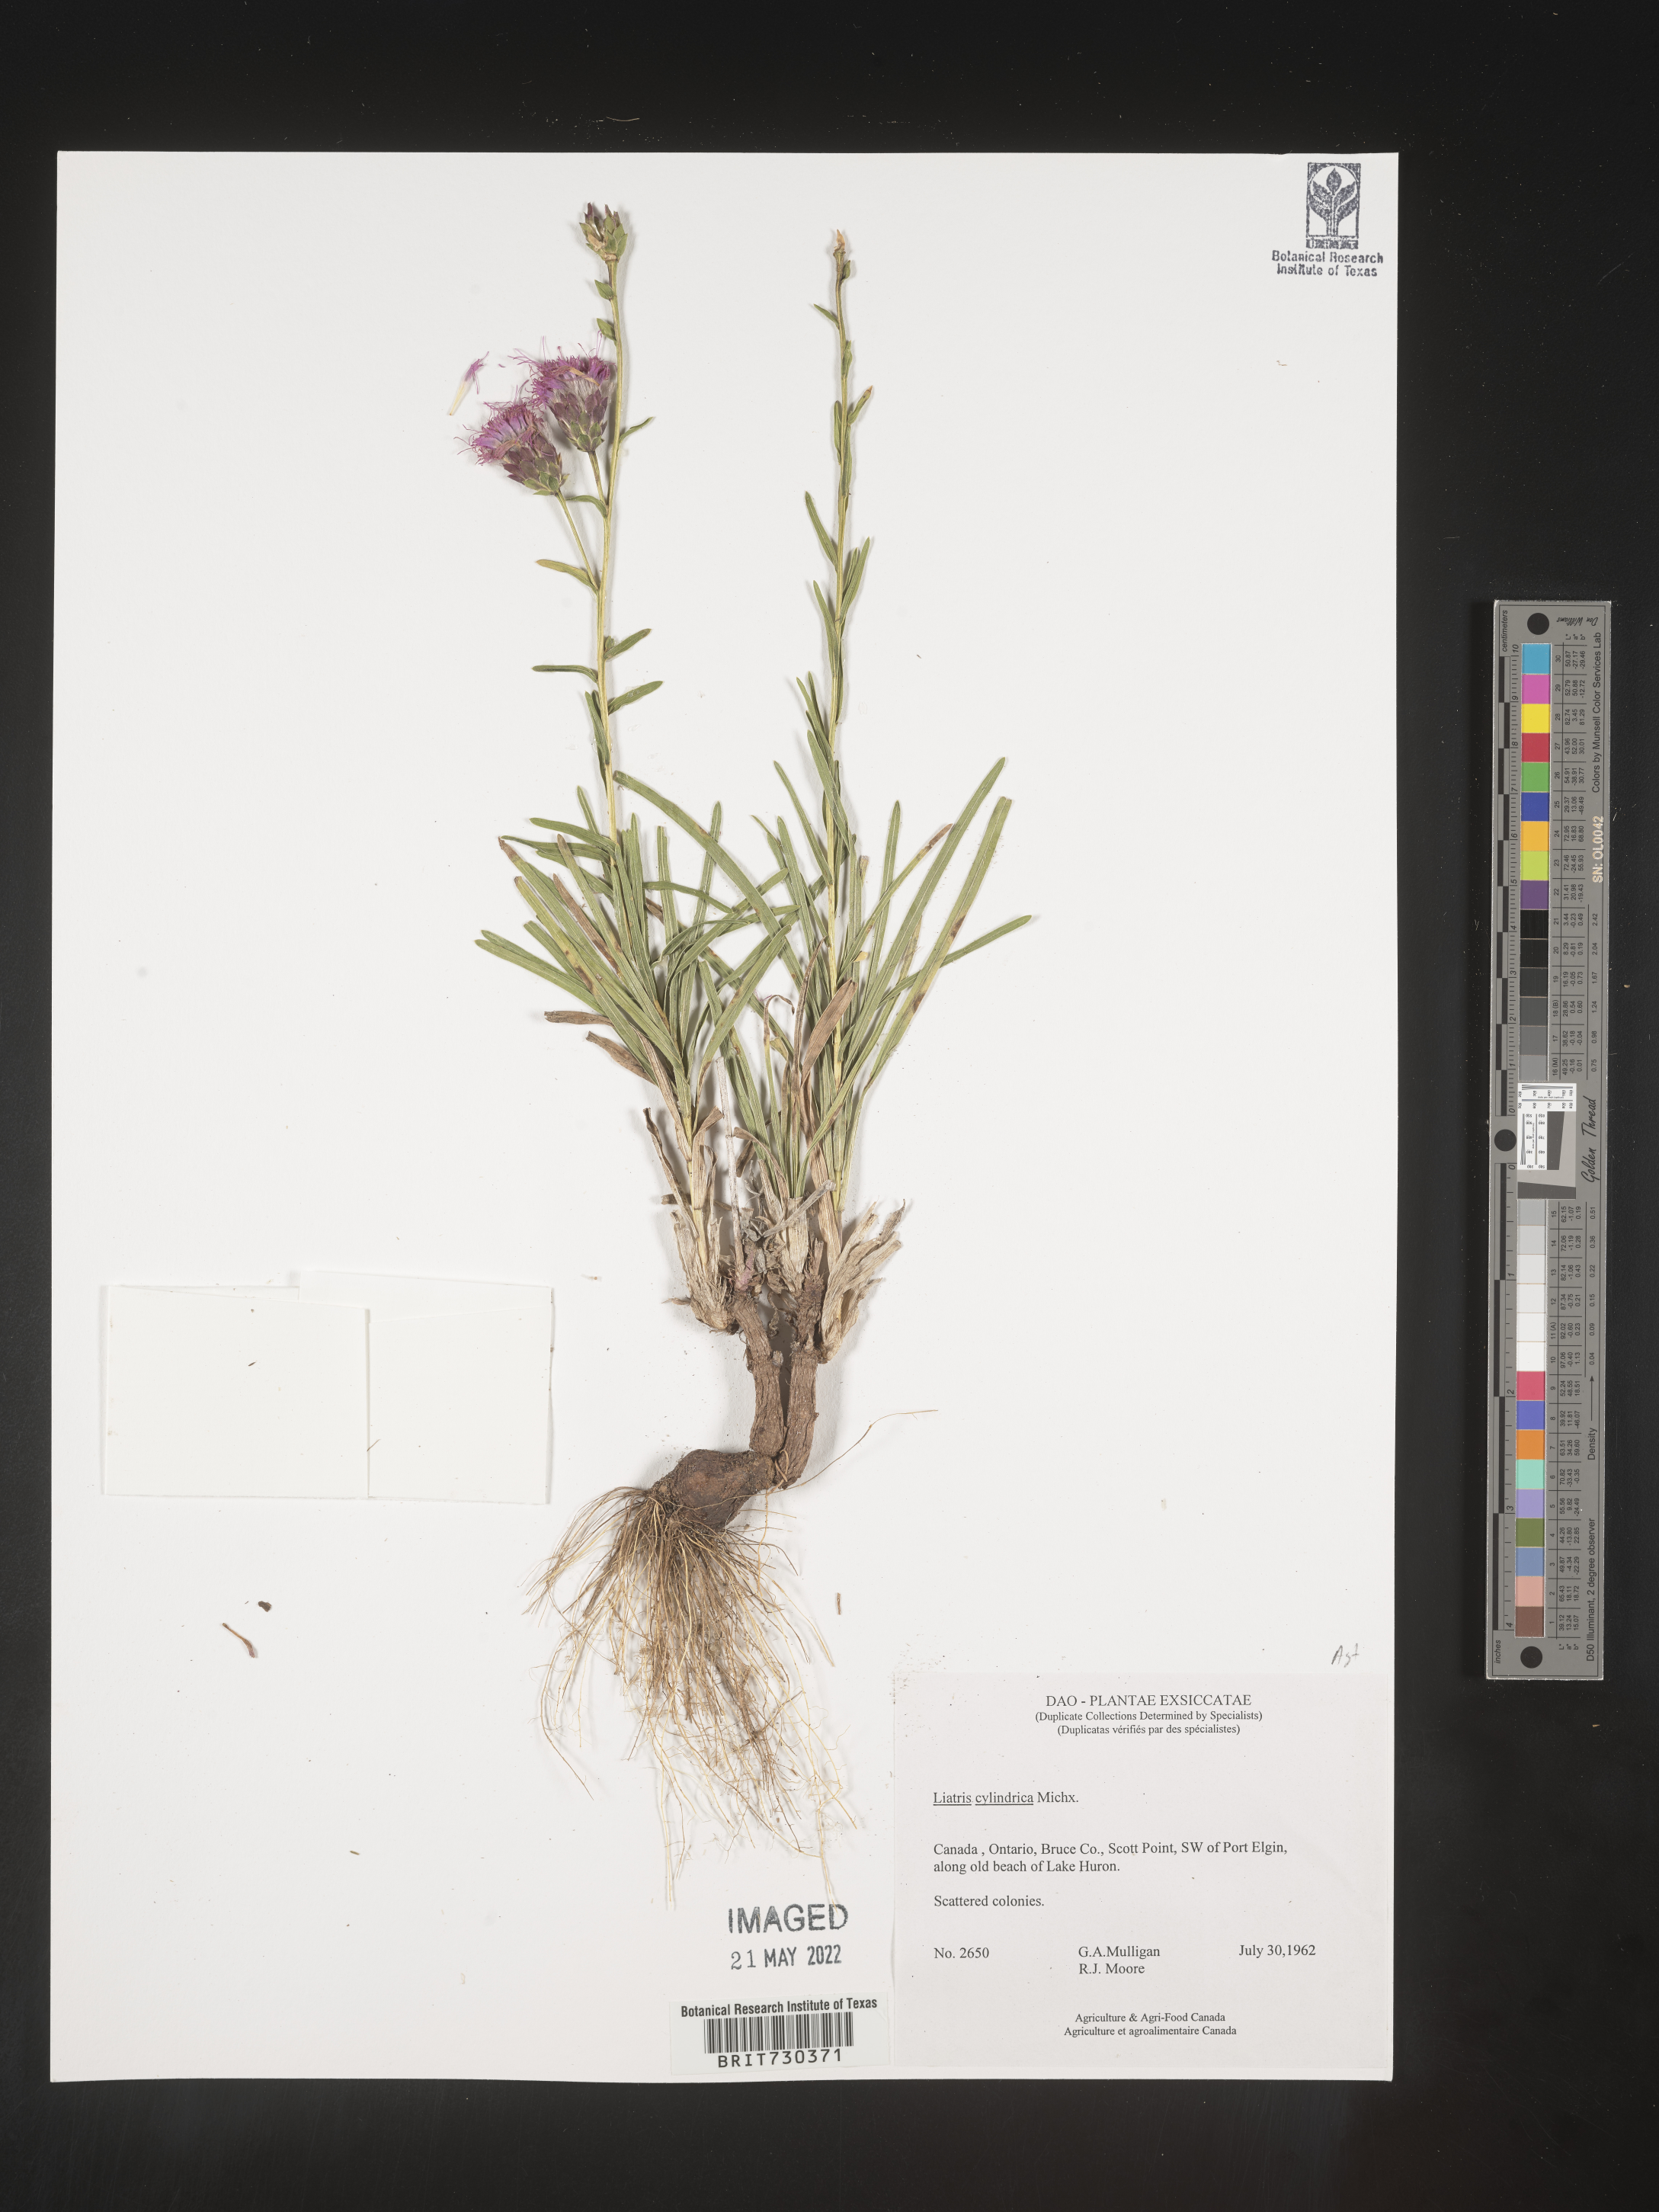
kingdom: Plantae
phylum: Tracheophyta
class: Magnoliopsida
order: Asterales
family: Asteraceae
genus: Liatris
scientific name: Liatris cylindracea
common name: Few-head blazingstar
